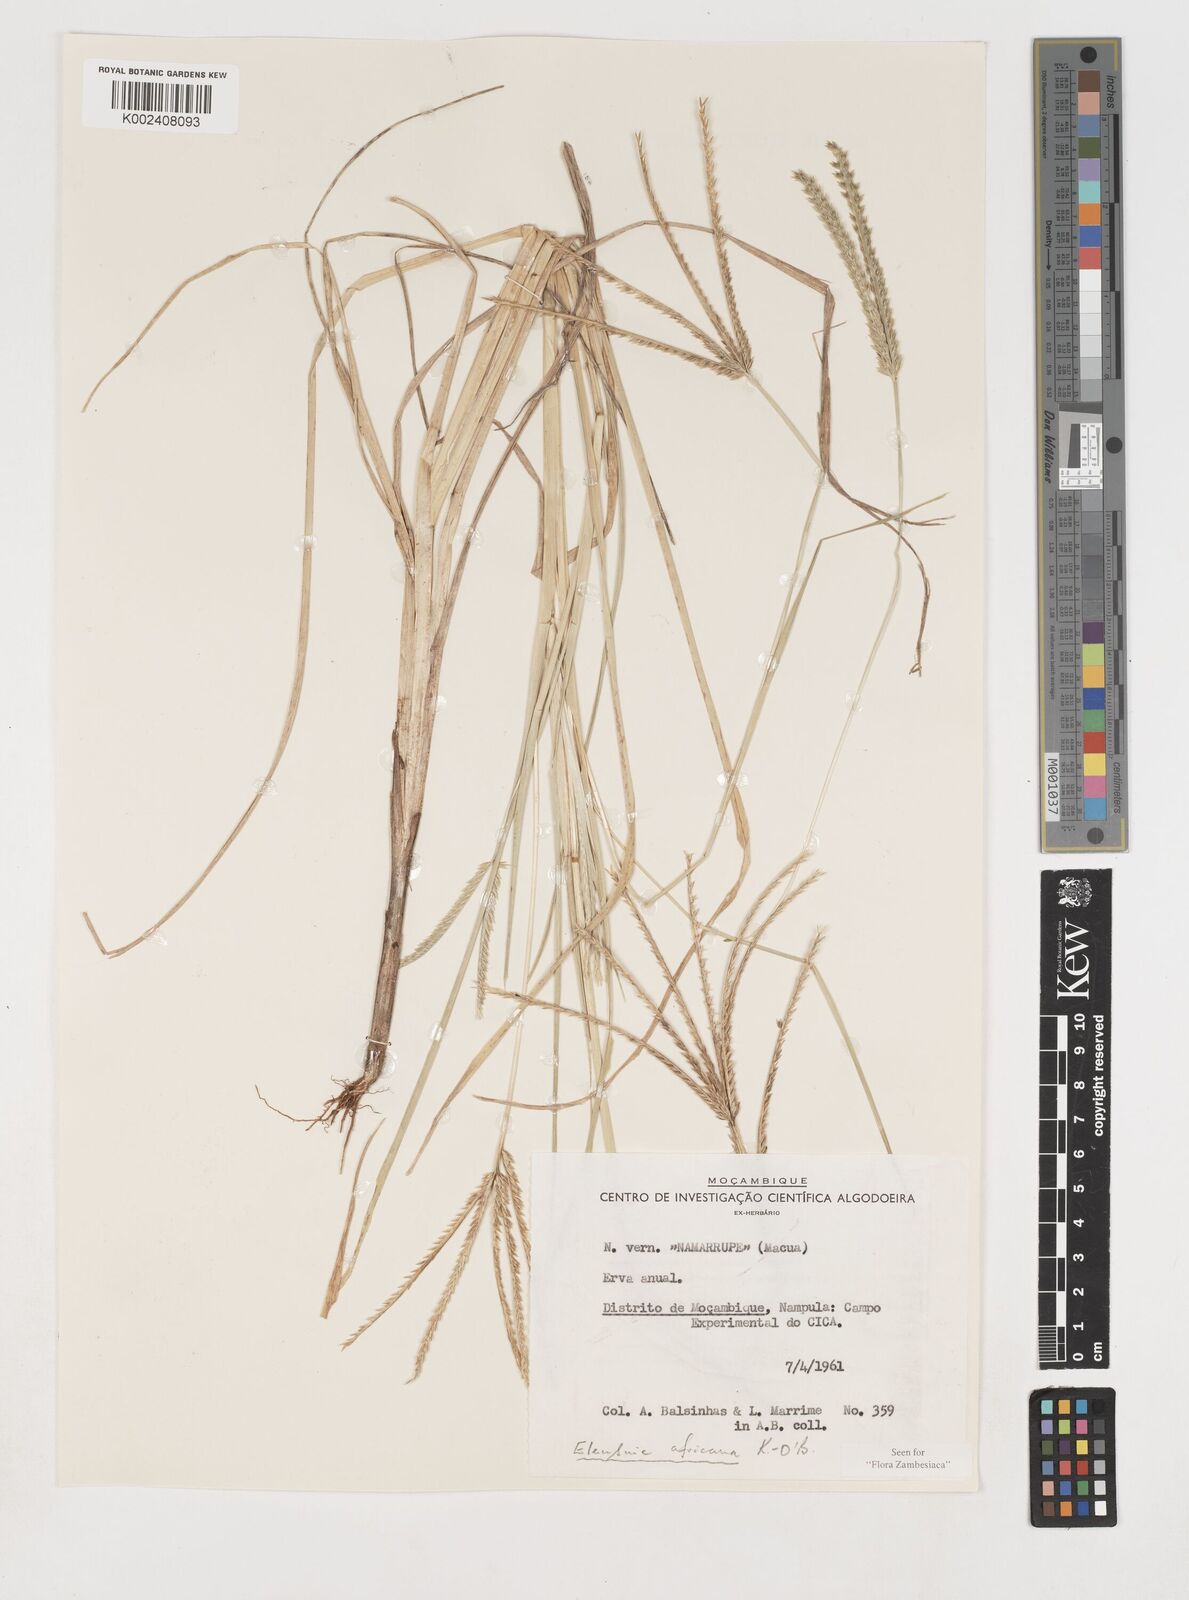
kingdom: Plantae
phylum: Tracheophyta
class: Liliopsida
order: Poales
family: Poaceae
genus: Eleusine
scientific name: Eleusine africana
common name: Wild african finger millet
